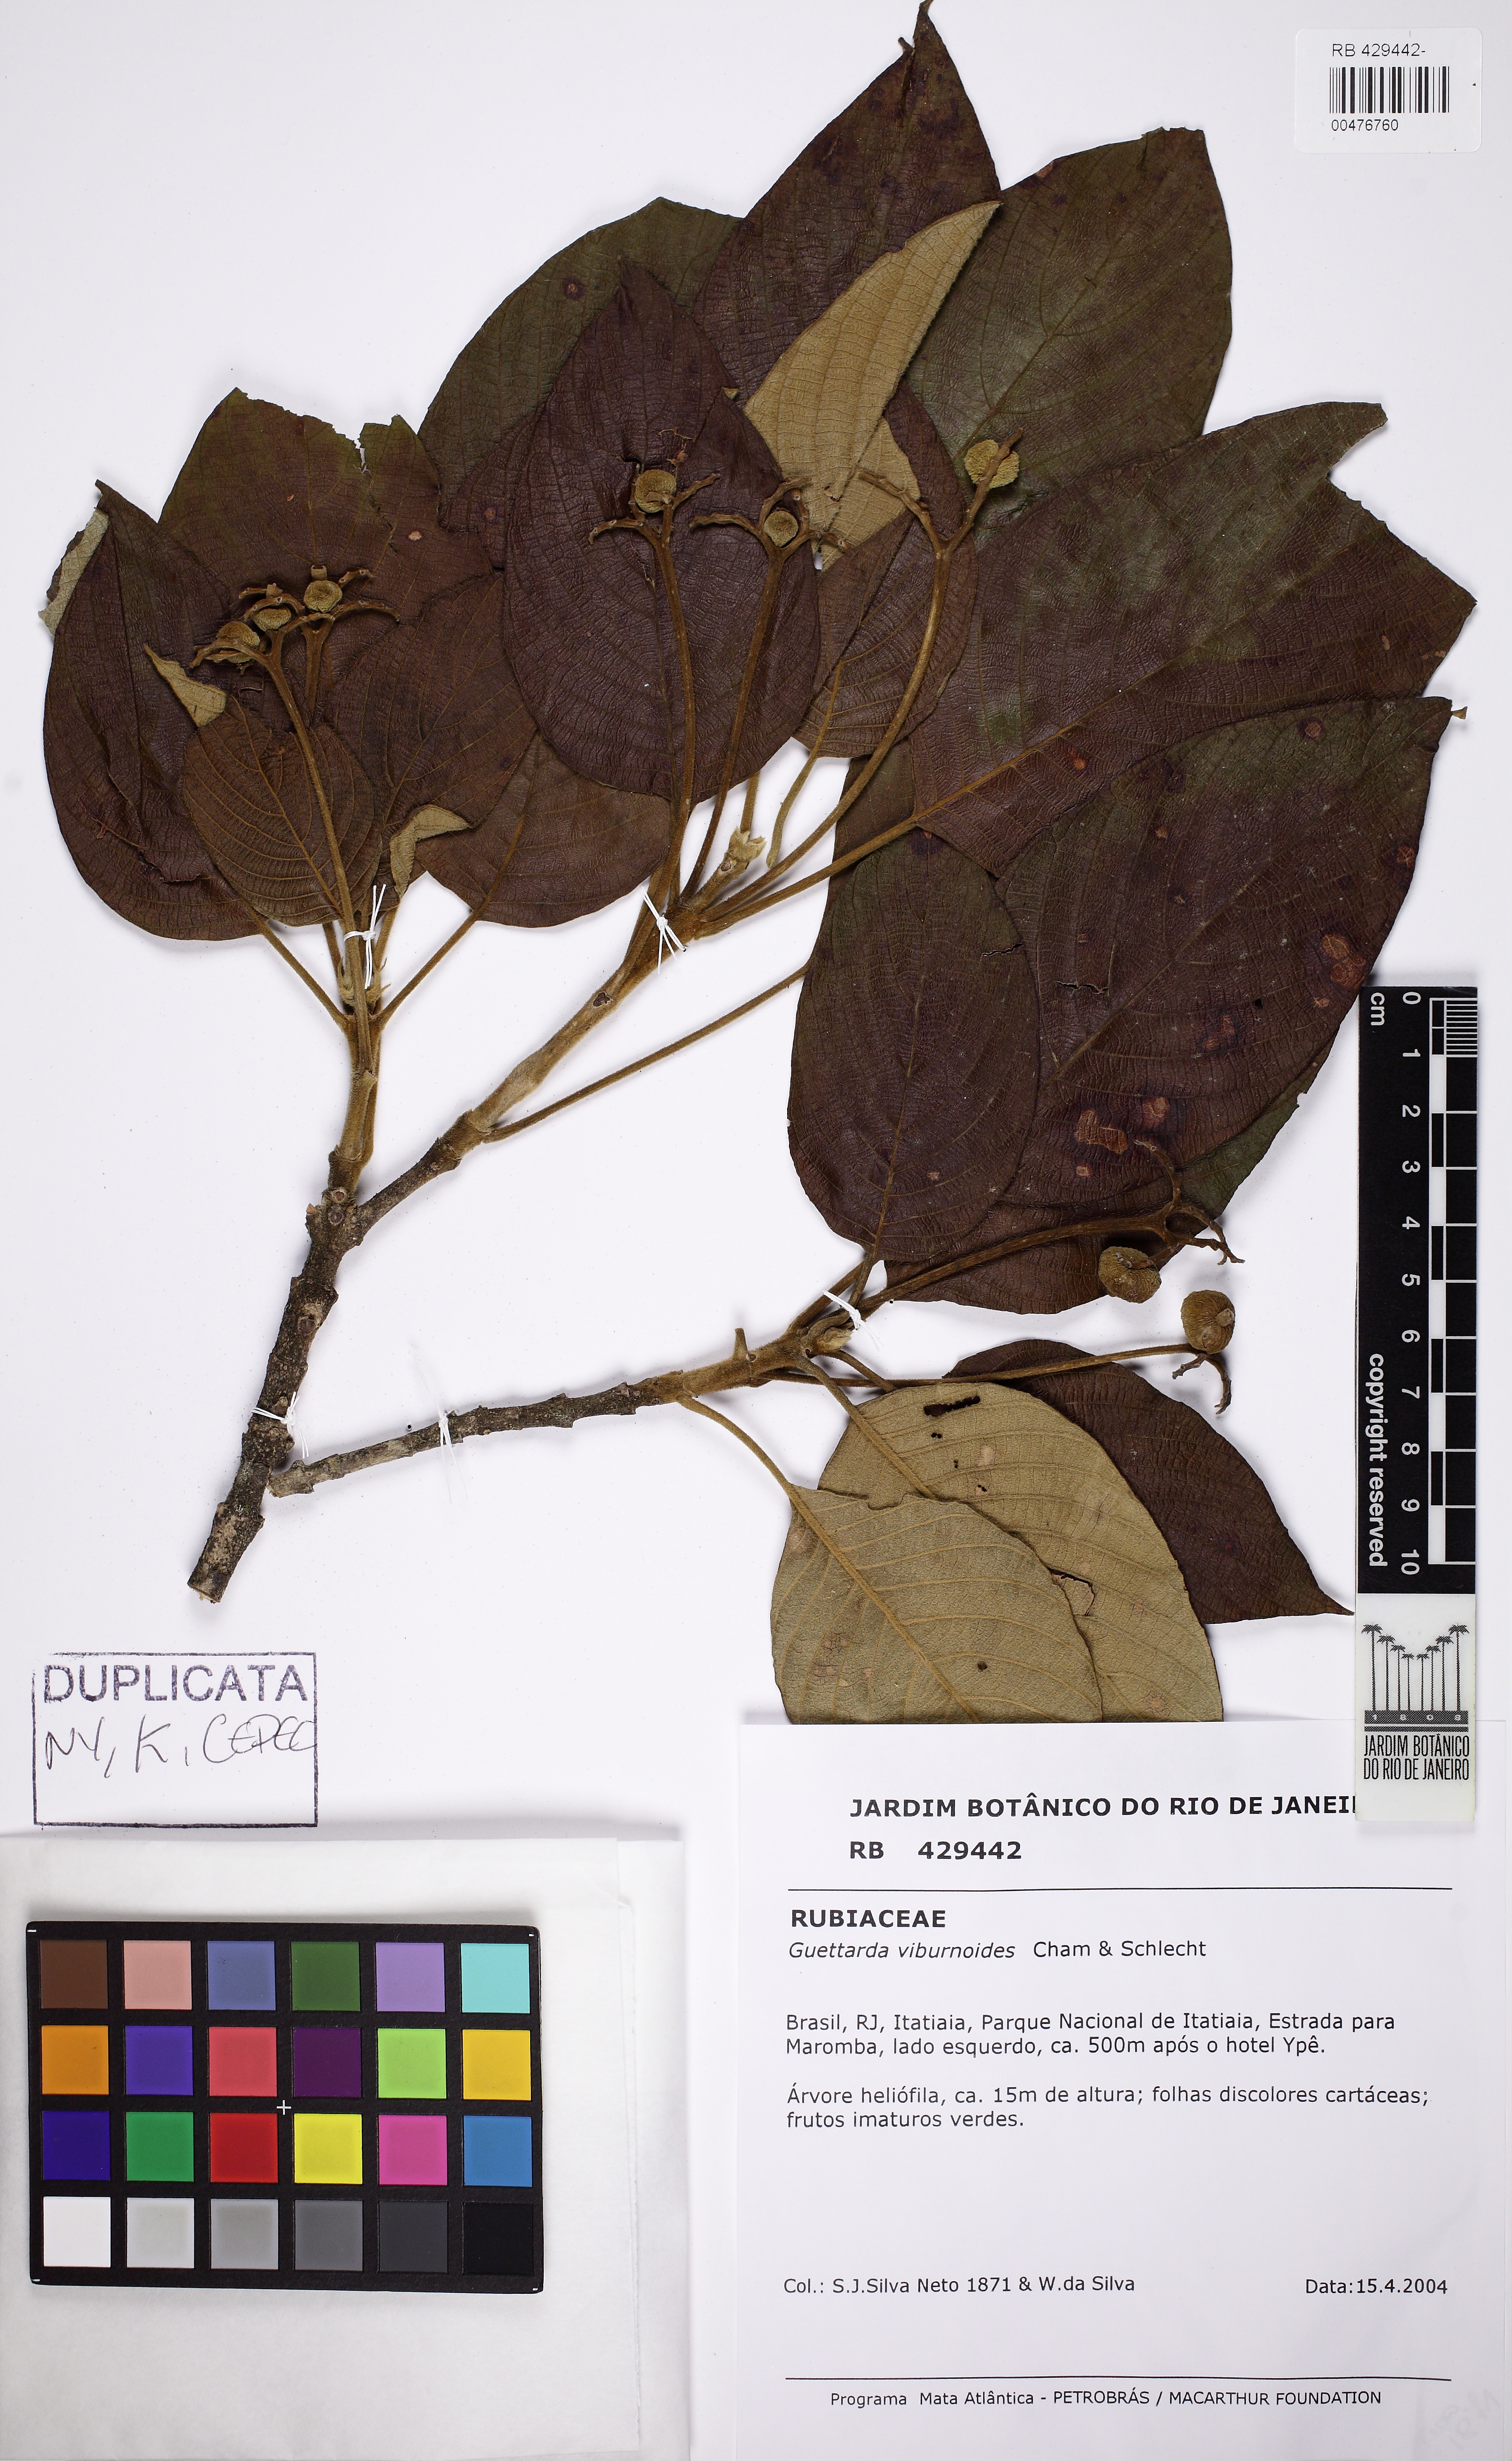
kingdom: Plantae
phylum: Tracheophyta
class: Magnoliopsida
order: Gentianales
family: Rubiaceae
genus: Guettarda
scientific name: Guettarda viburnoides
